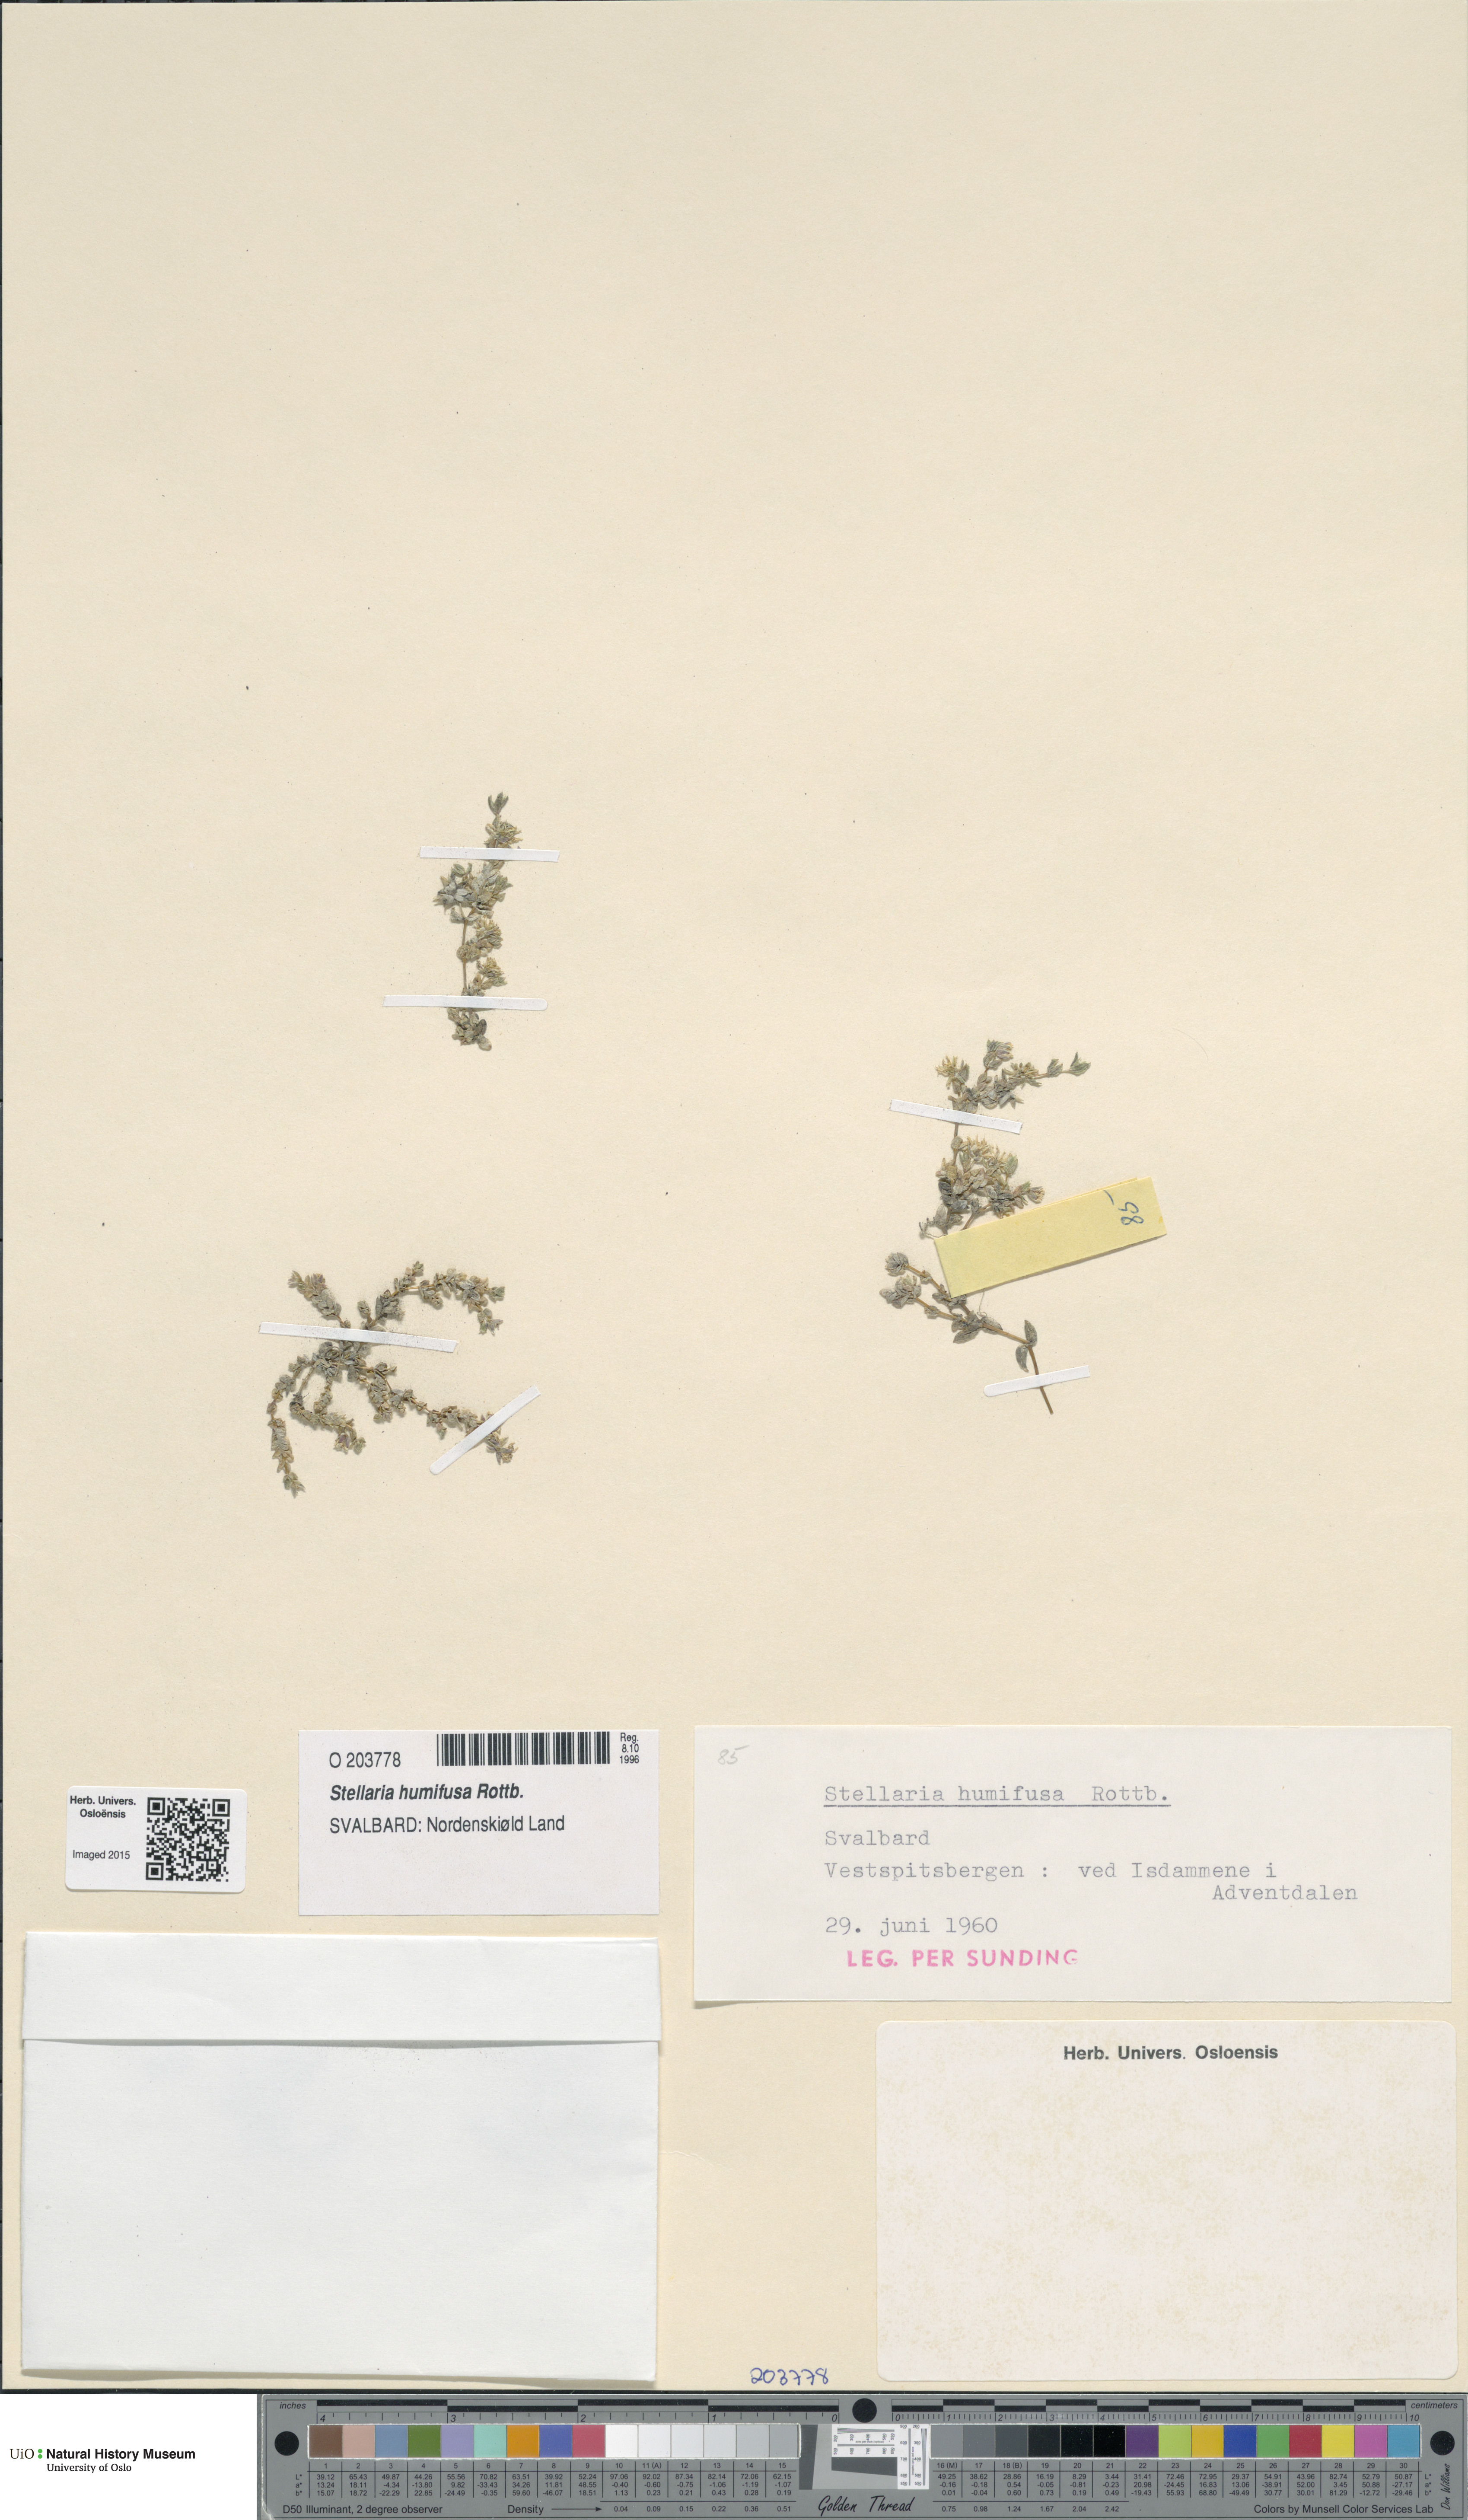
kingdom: Plantae
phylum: Tracheophyta
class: Magnoliopsida
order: Caryophyllales
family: Caryophyllaceae
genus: Stellaria
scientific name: Stellaria humifusa
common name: Creeping starwort
